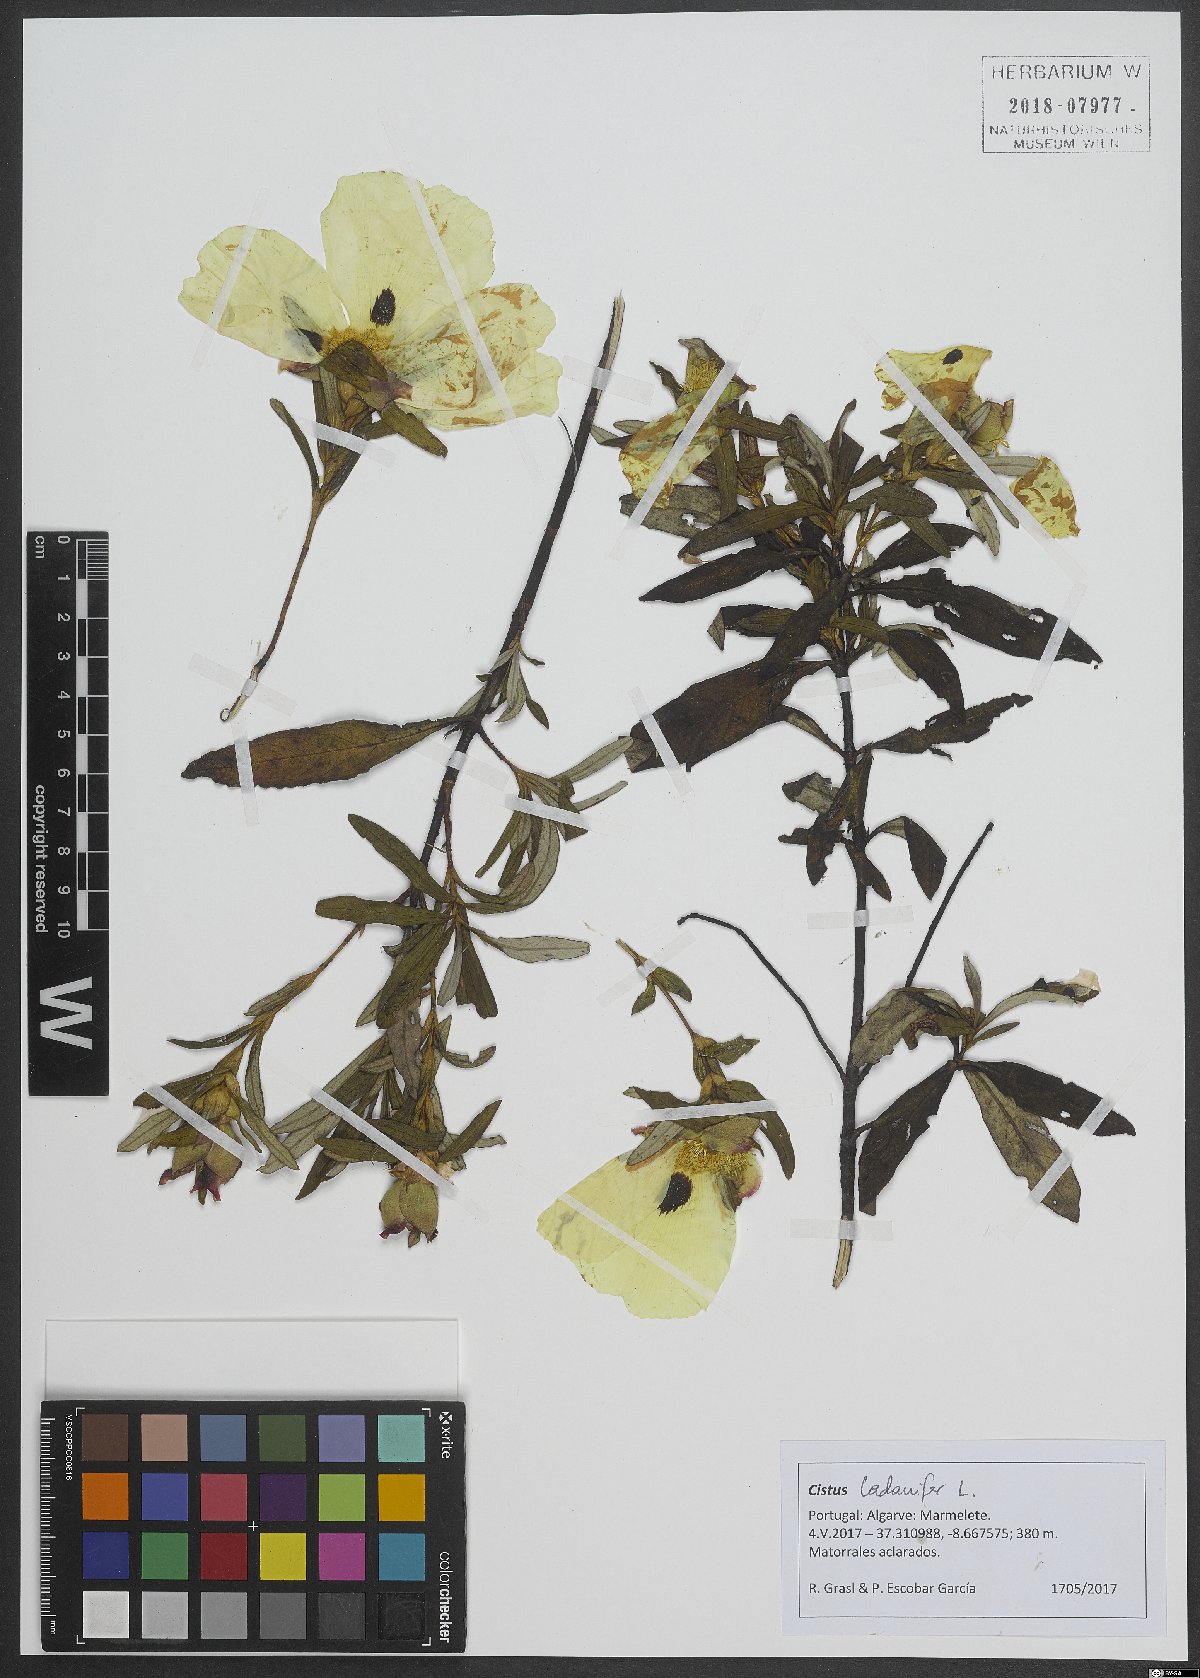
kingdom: Plantae
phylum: Tracheophyta
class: Magnoliopsida
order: Malvales
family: Cistaceae
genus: Cistus
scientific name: Cistus ladanifer
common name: Common gum cistus
